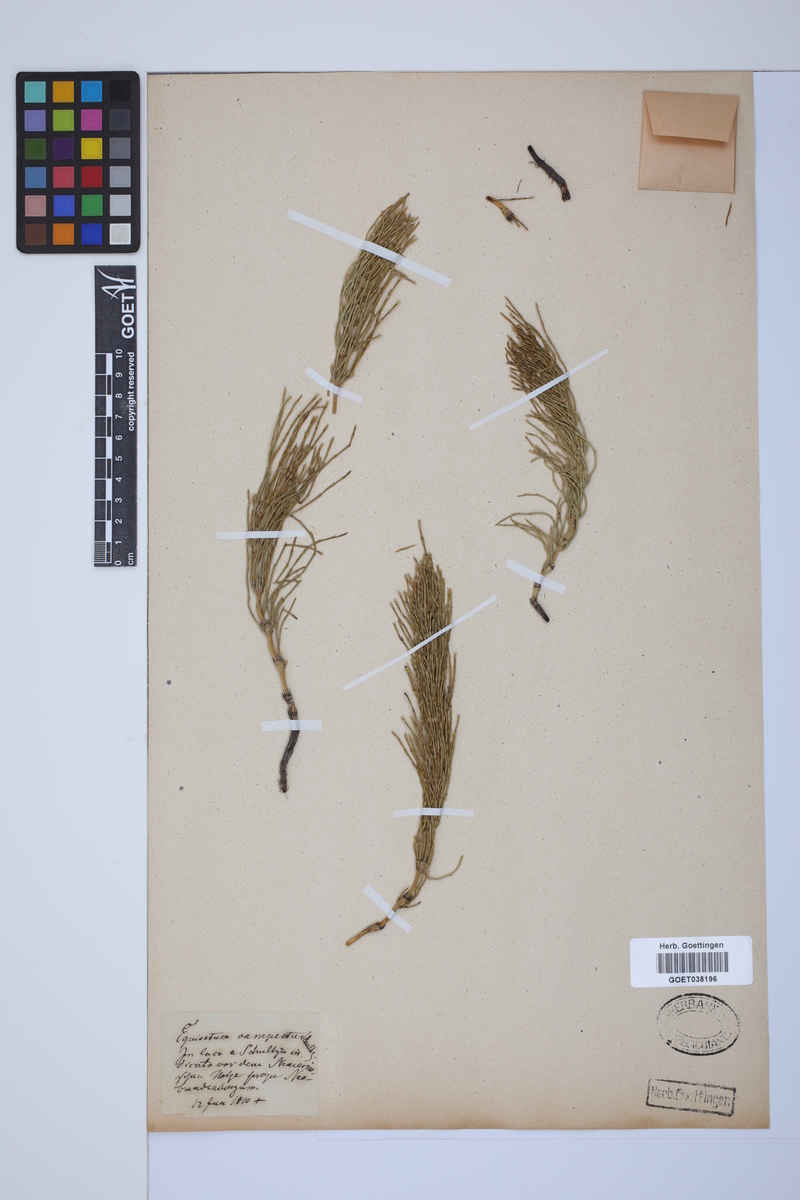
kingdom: Plantae
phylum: Tracheophyta
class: Polypodiopsida
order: Equisetales
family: Equisetaceae
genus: Equisetum
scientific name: Equisetum arvense
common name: Field horsetail
